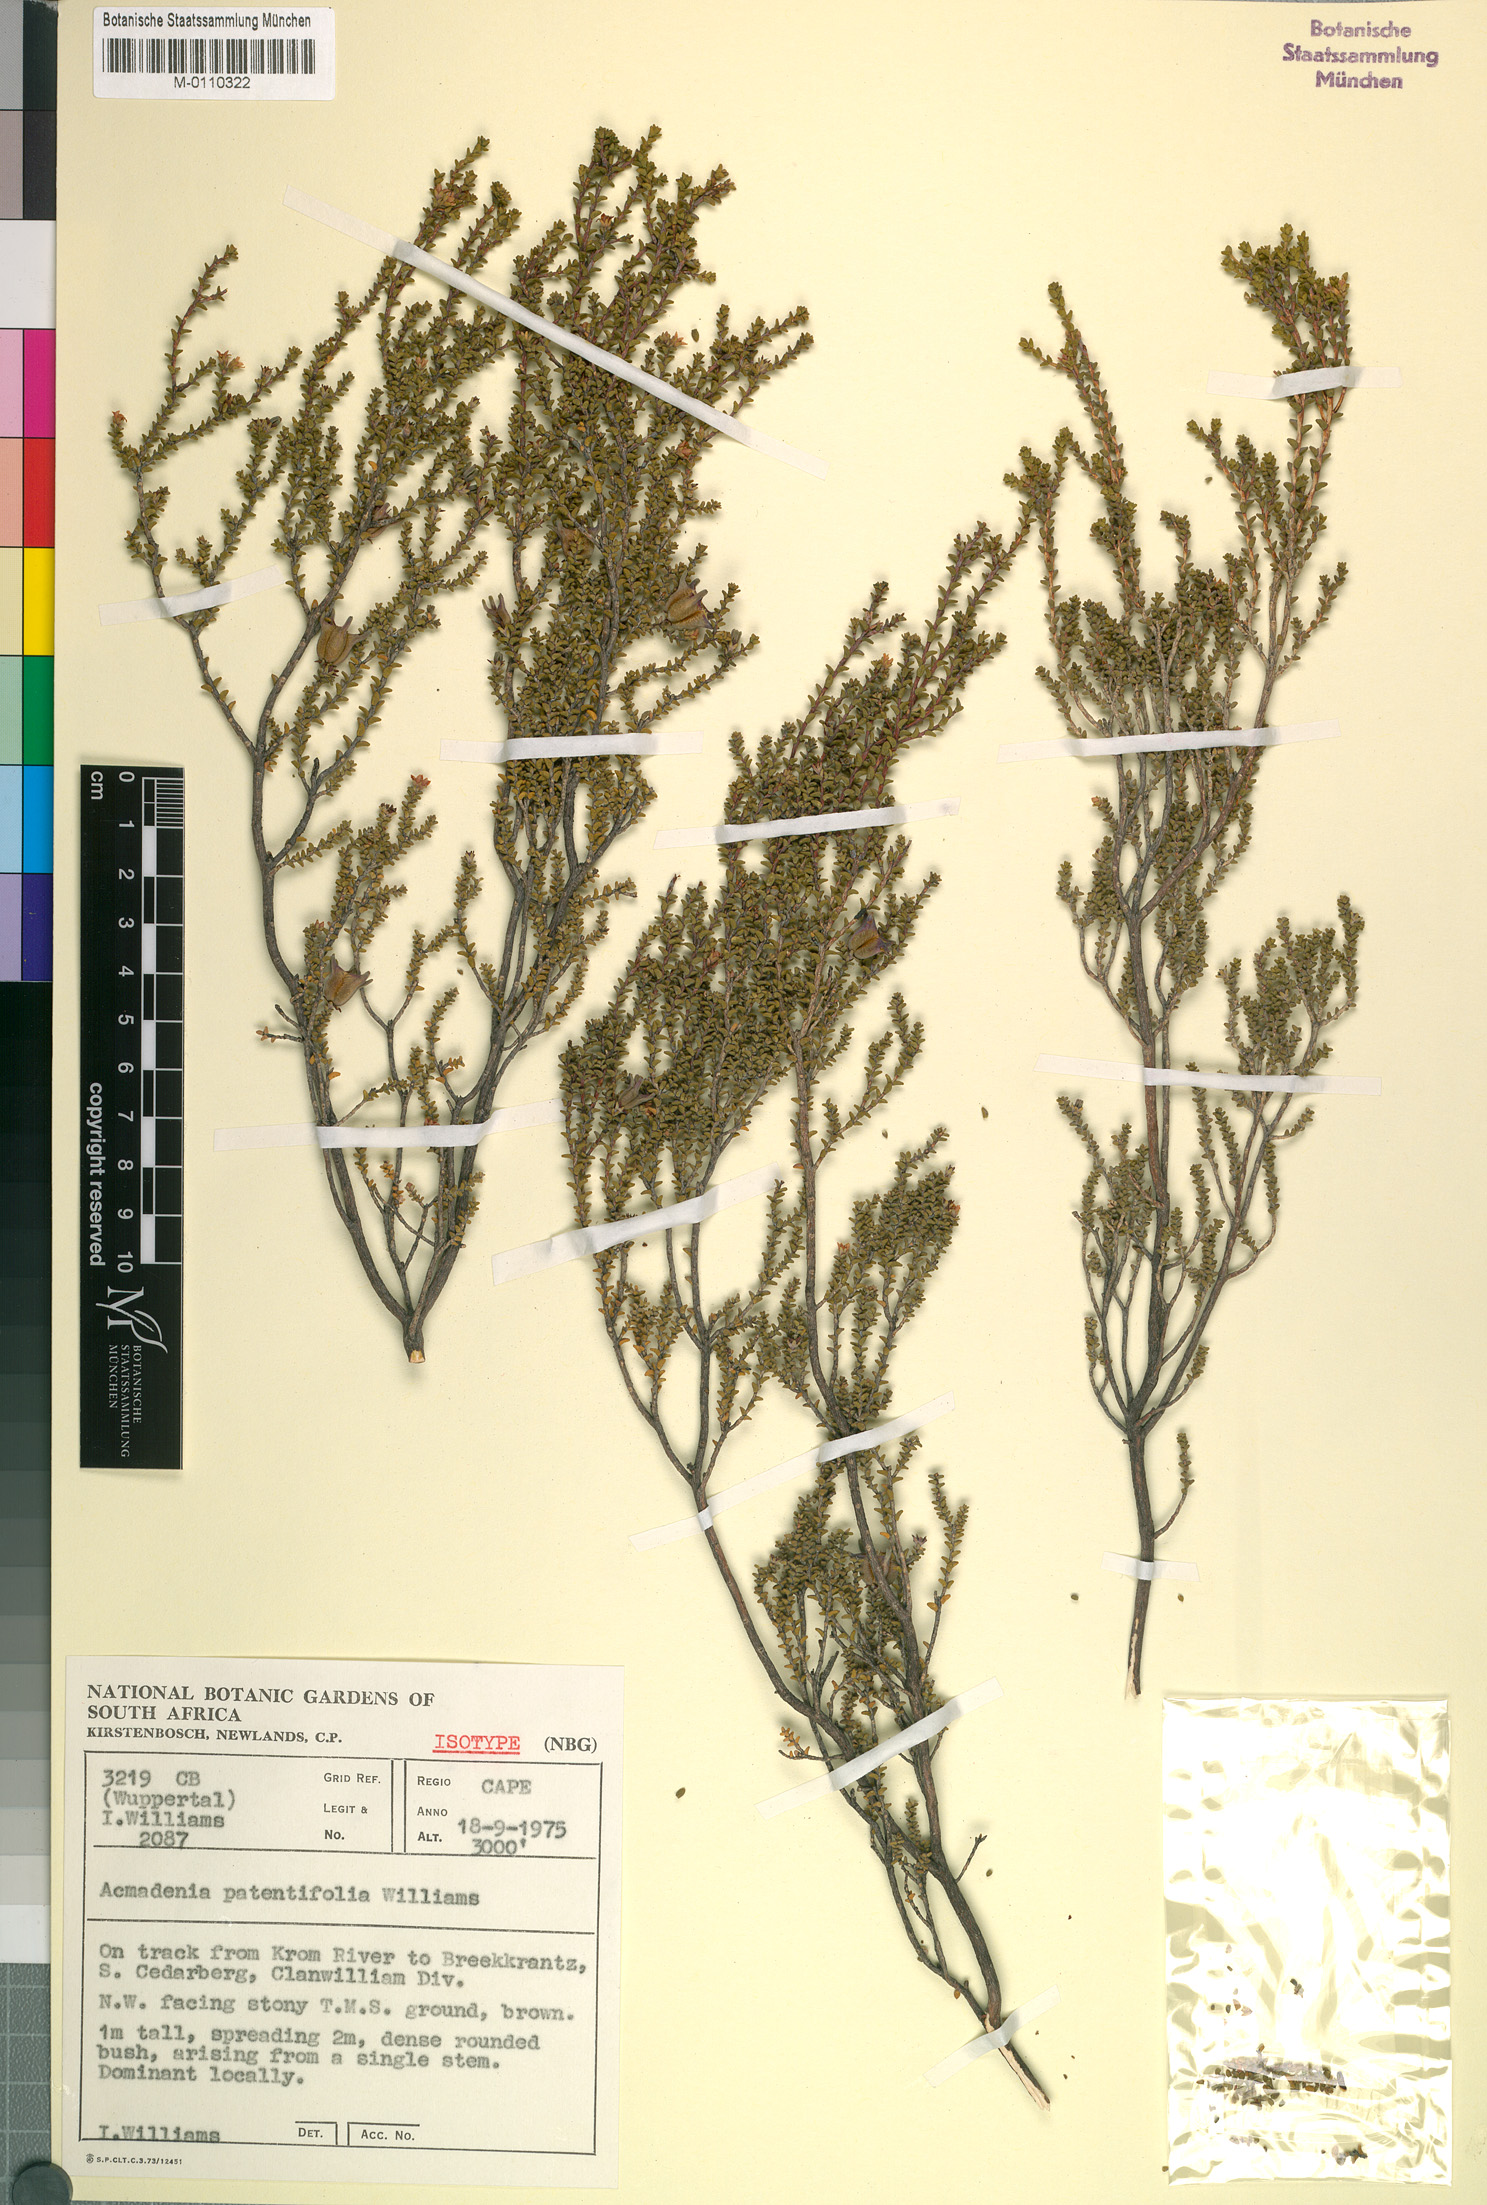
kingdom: Plantae
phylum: Tracheophyta
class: Magnoliopsida
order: Sapindales
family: Rutaceae
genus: Acmadenia
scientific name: Acmadenia patentifolia
